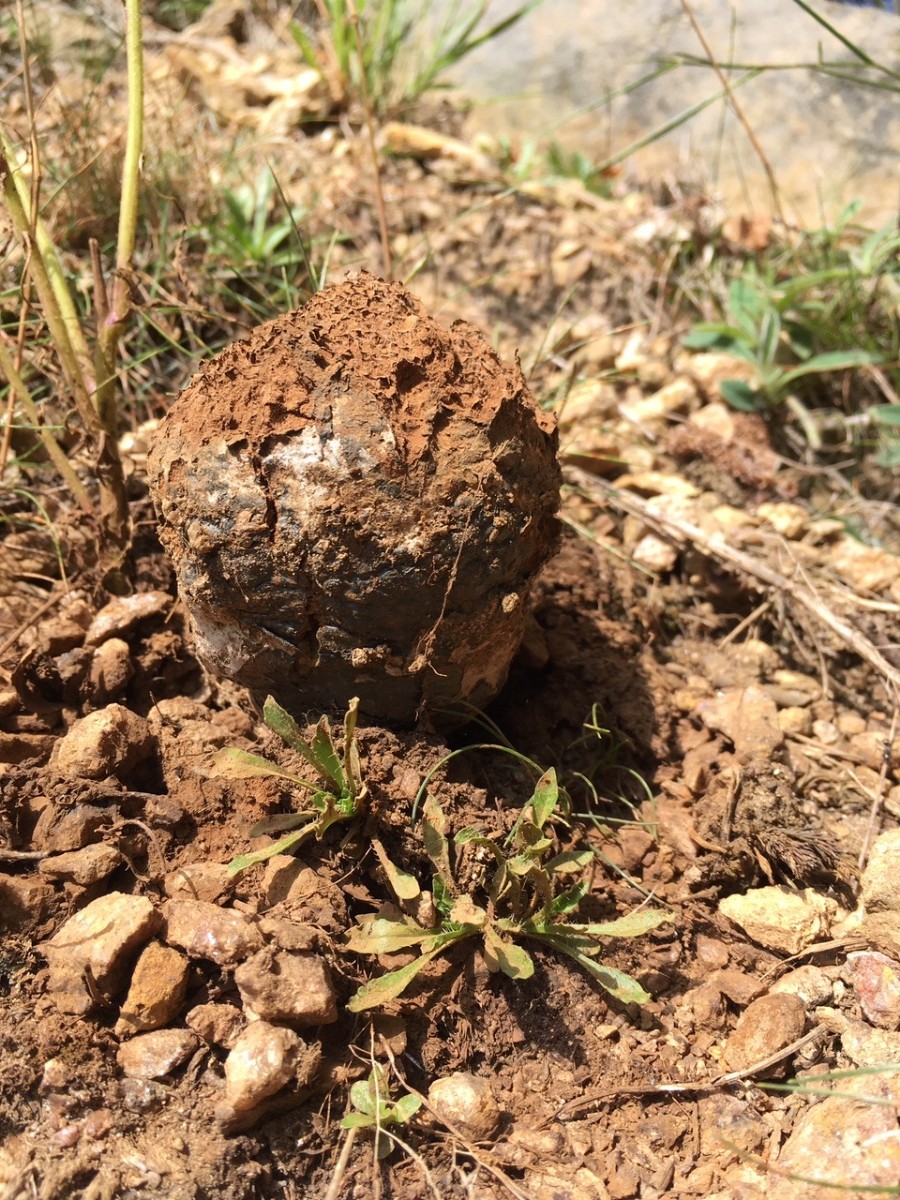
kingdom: Fungi
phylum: Basidiomycota
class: Agaricomycetes
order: Boletales
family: Sclerodermataceae
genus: Pisolithus
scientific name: Pisolithus capsulifer
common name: farvebold
